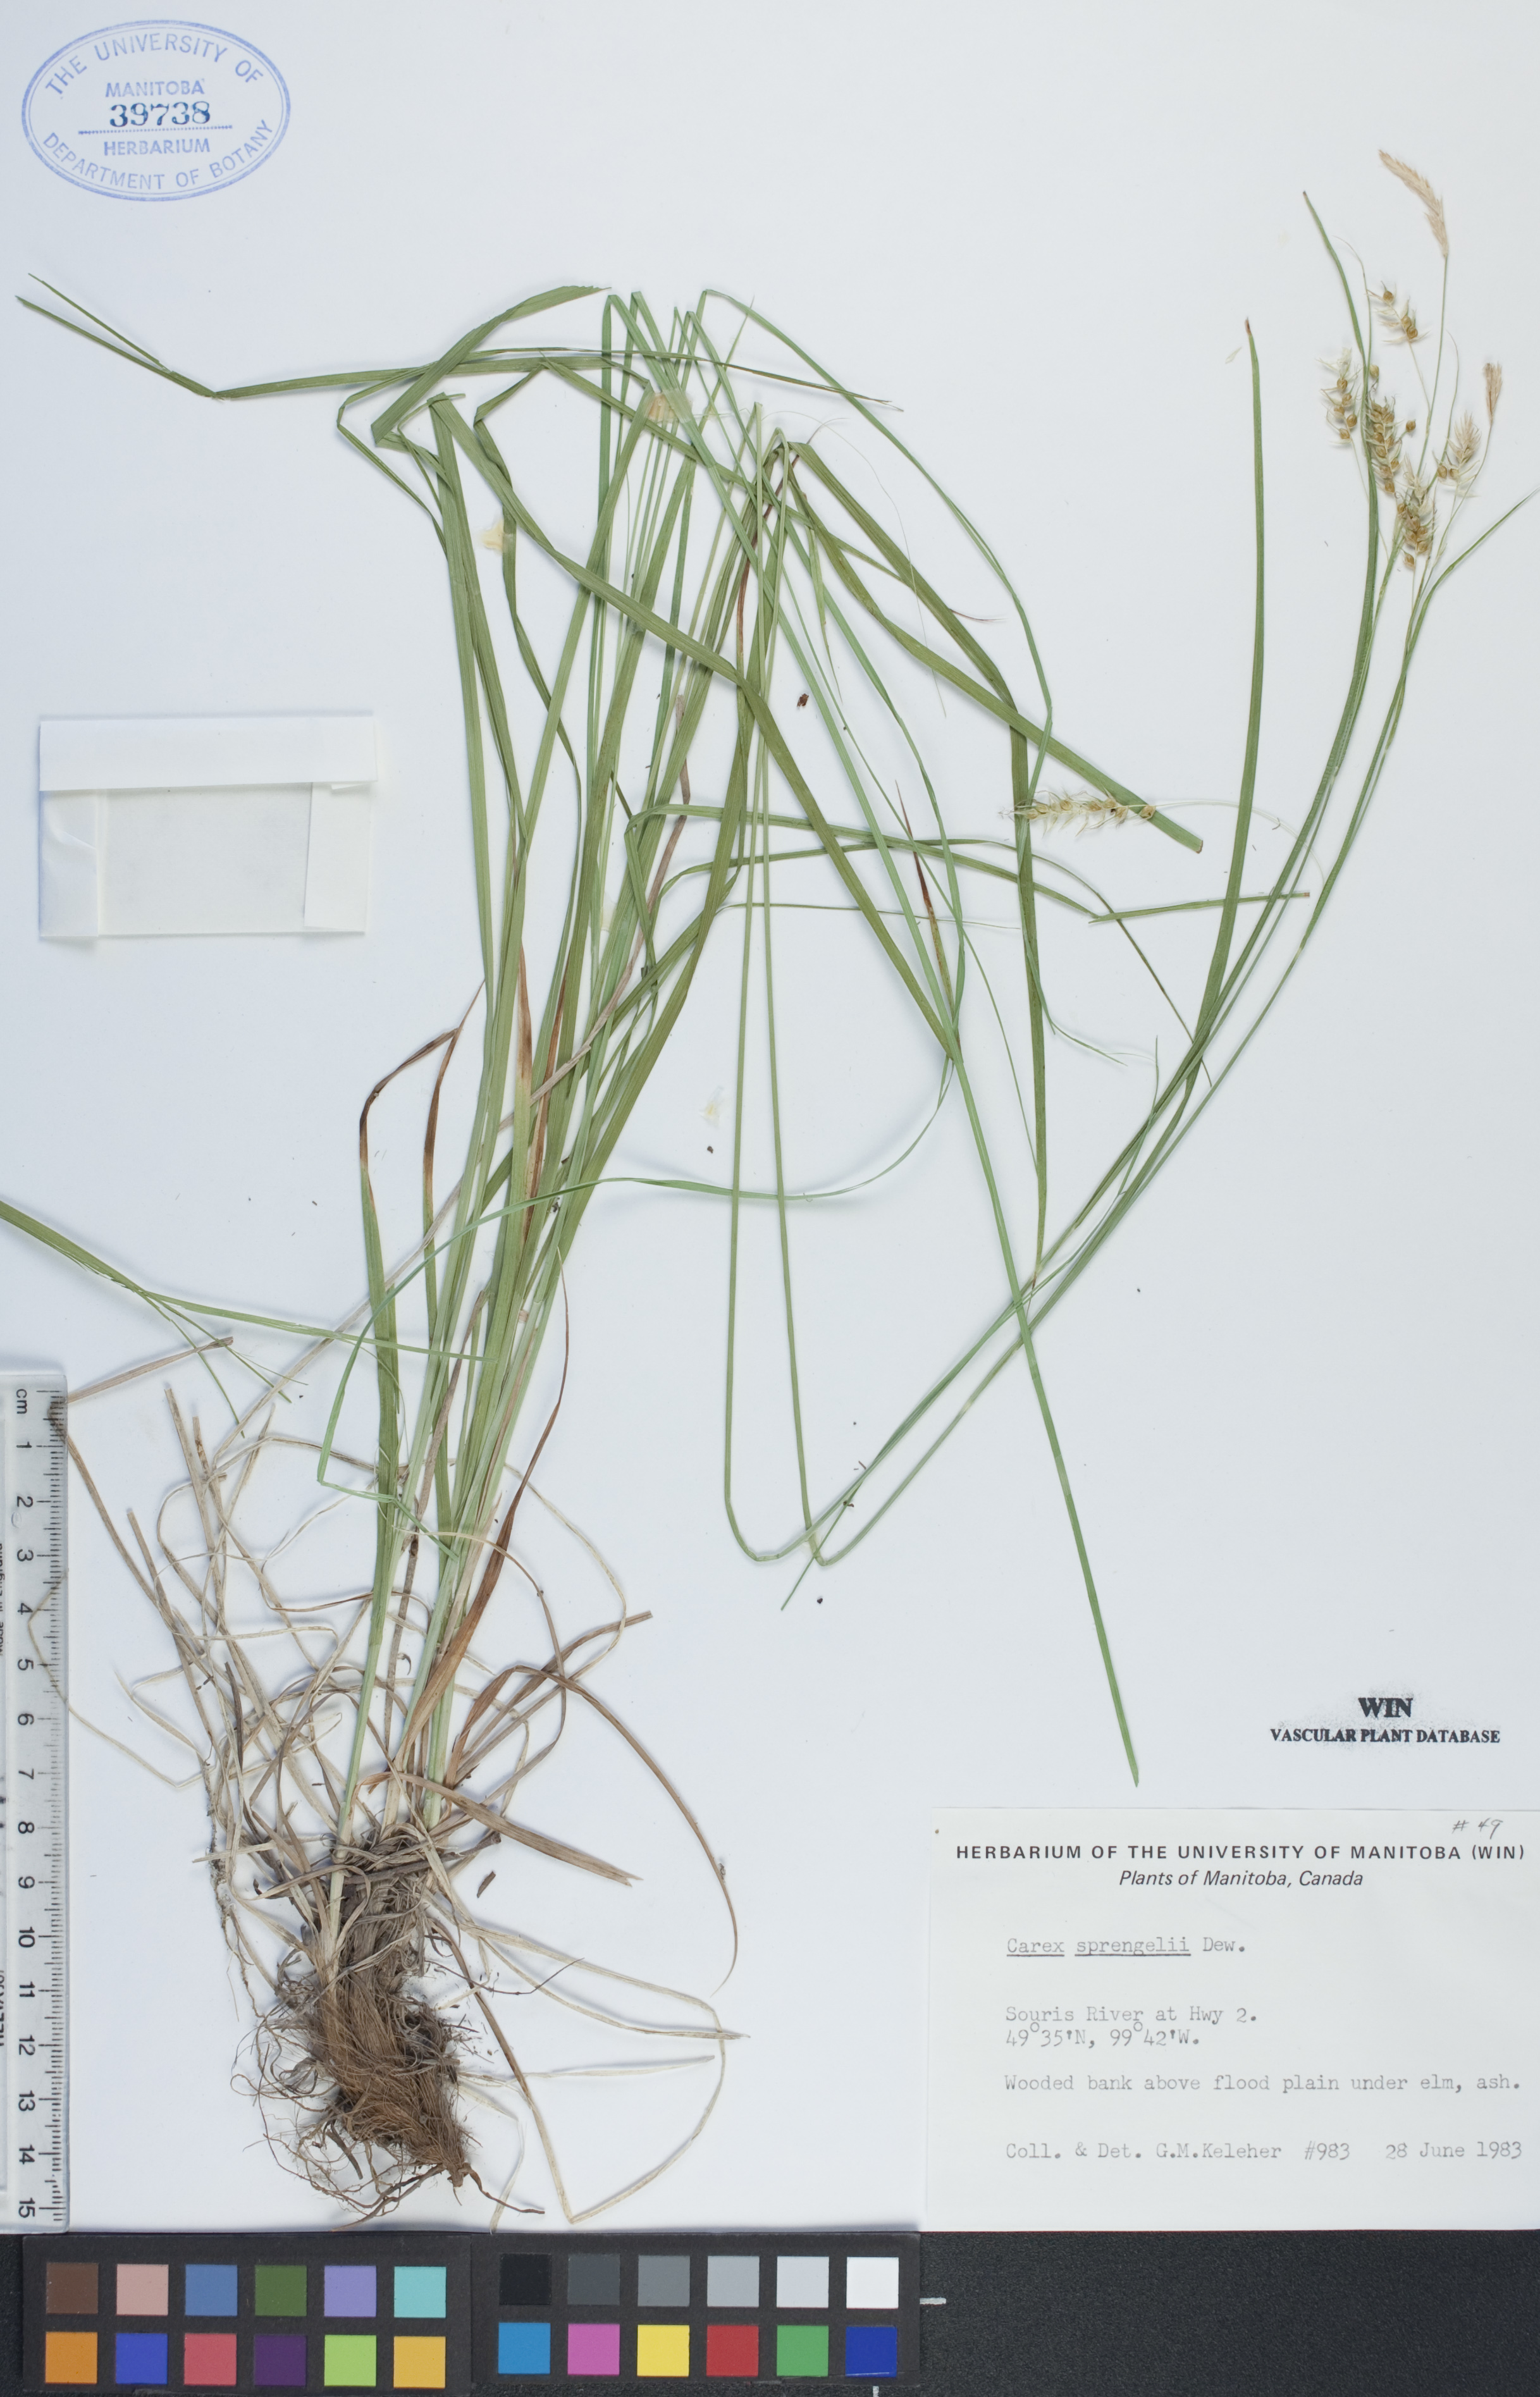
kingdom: Plantae
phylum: Tracheophyta
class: Liliopsida
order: Poales
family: Cyperaceae
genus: Carex
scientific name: Carex sprengelii
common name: Long-beaked sedge
